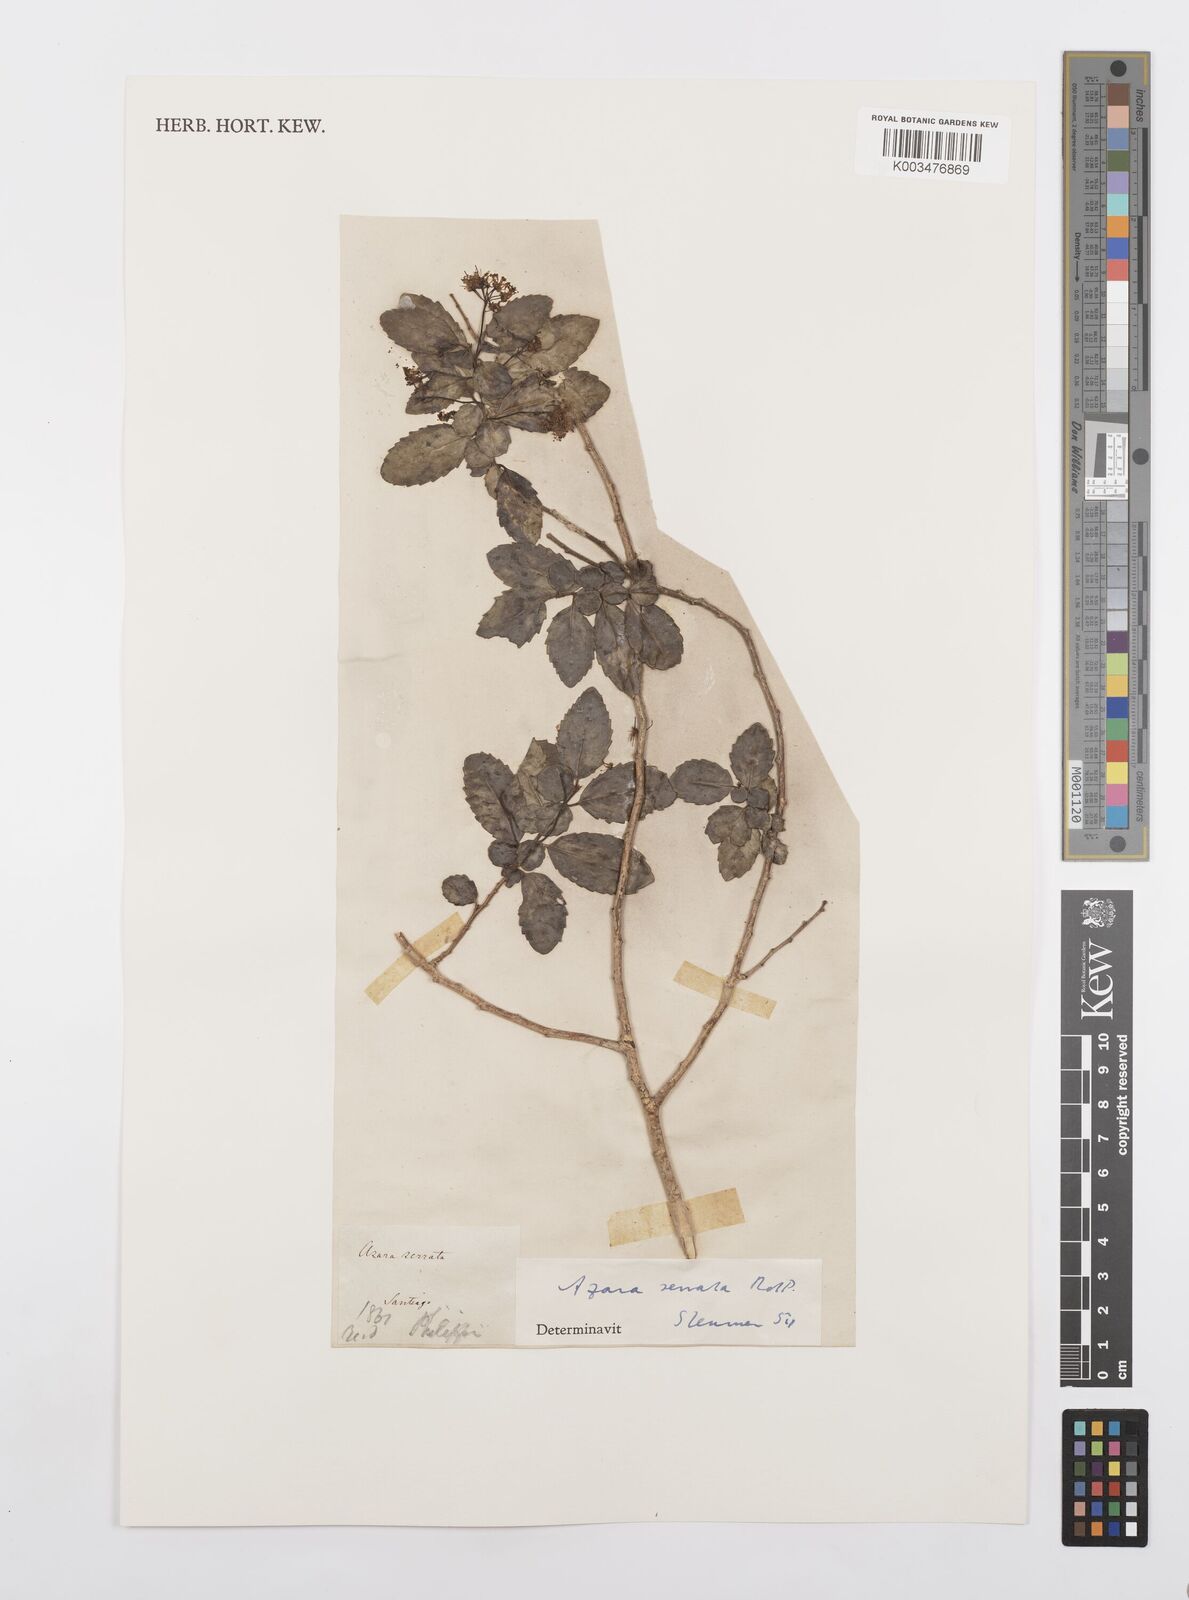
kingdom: Plantae
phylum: Tracheophyta
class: Magnoliopsida
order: Malpighiales
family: Salicaceae
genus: Azara
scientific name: Azara serrata
